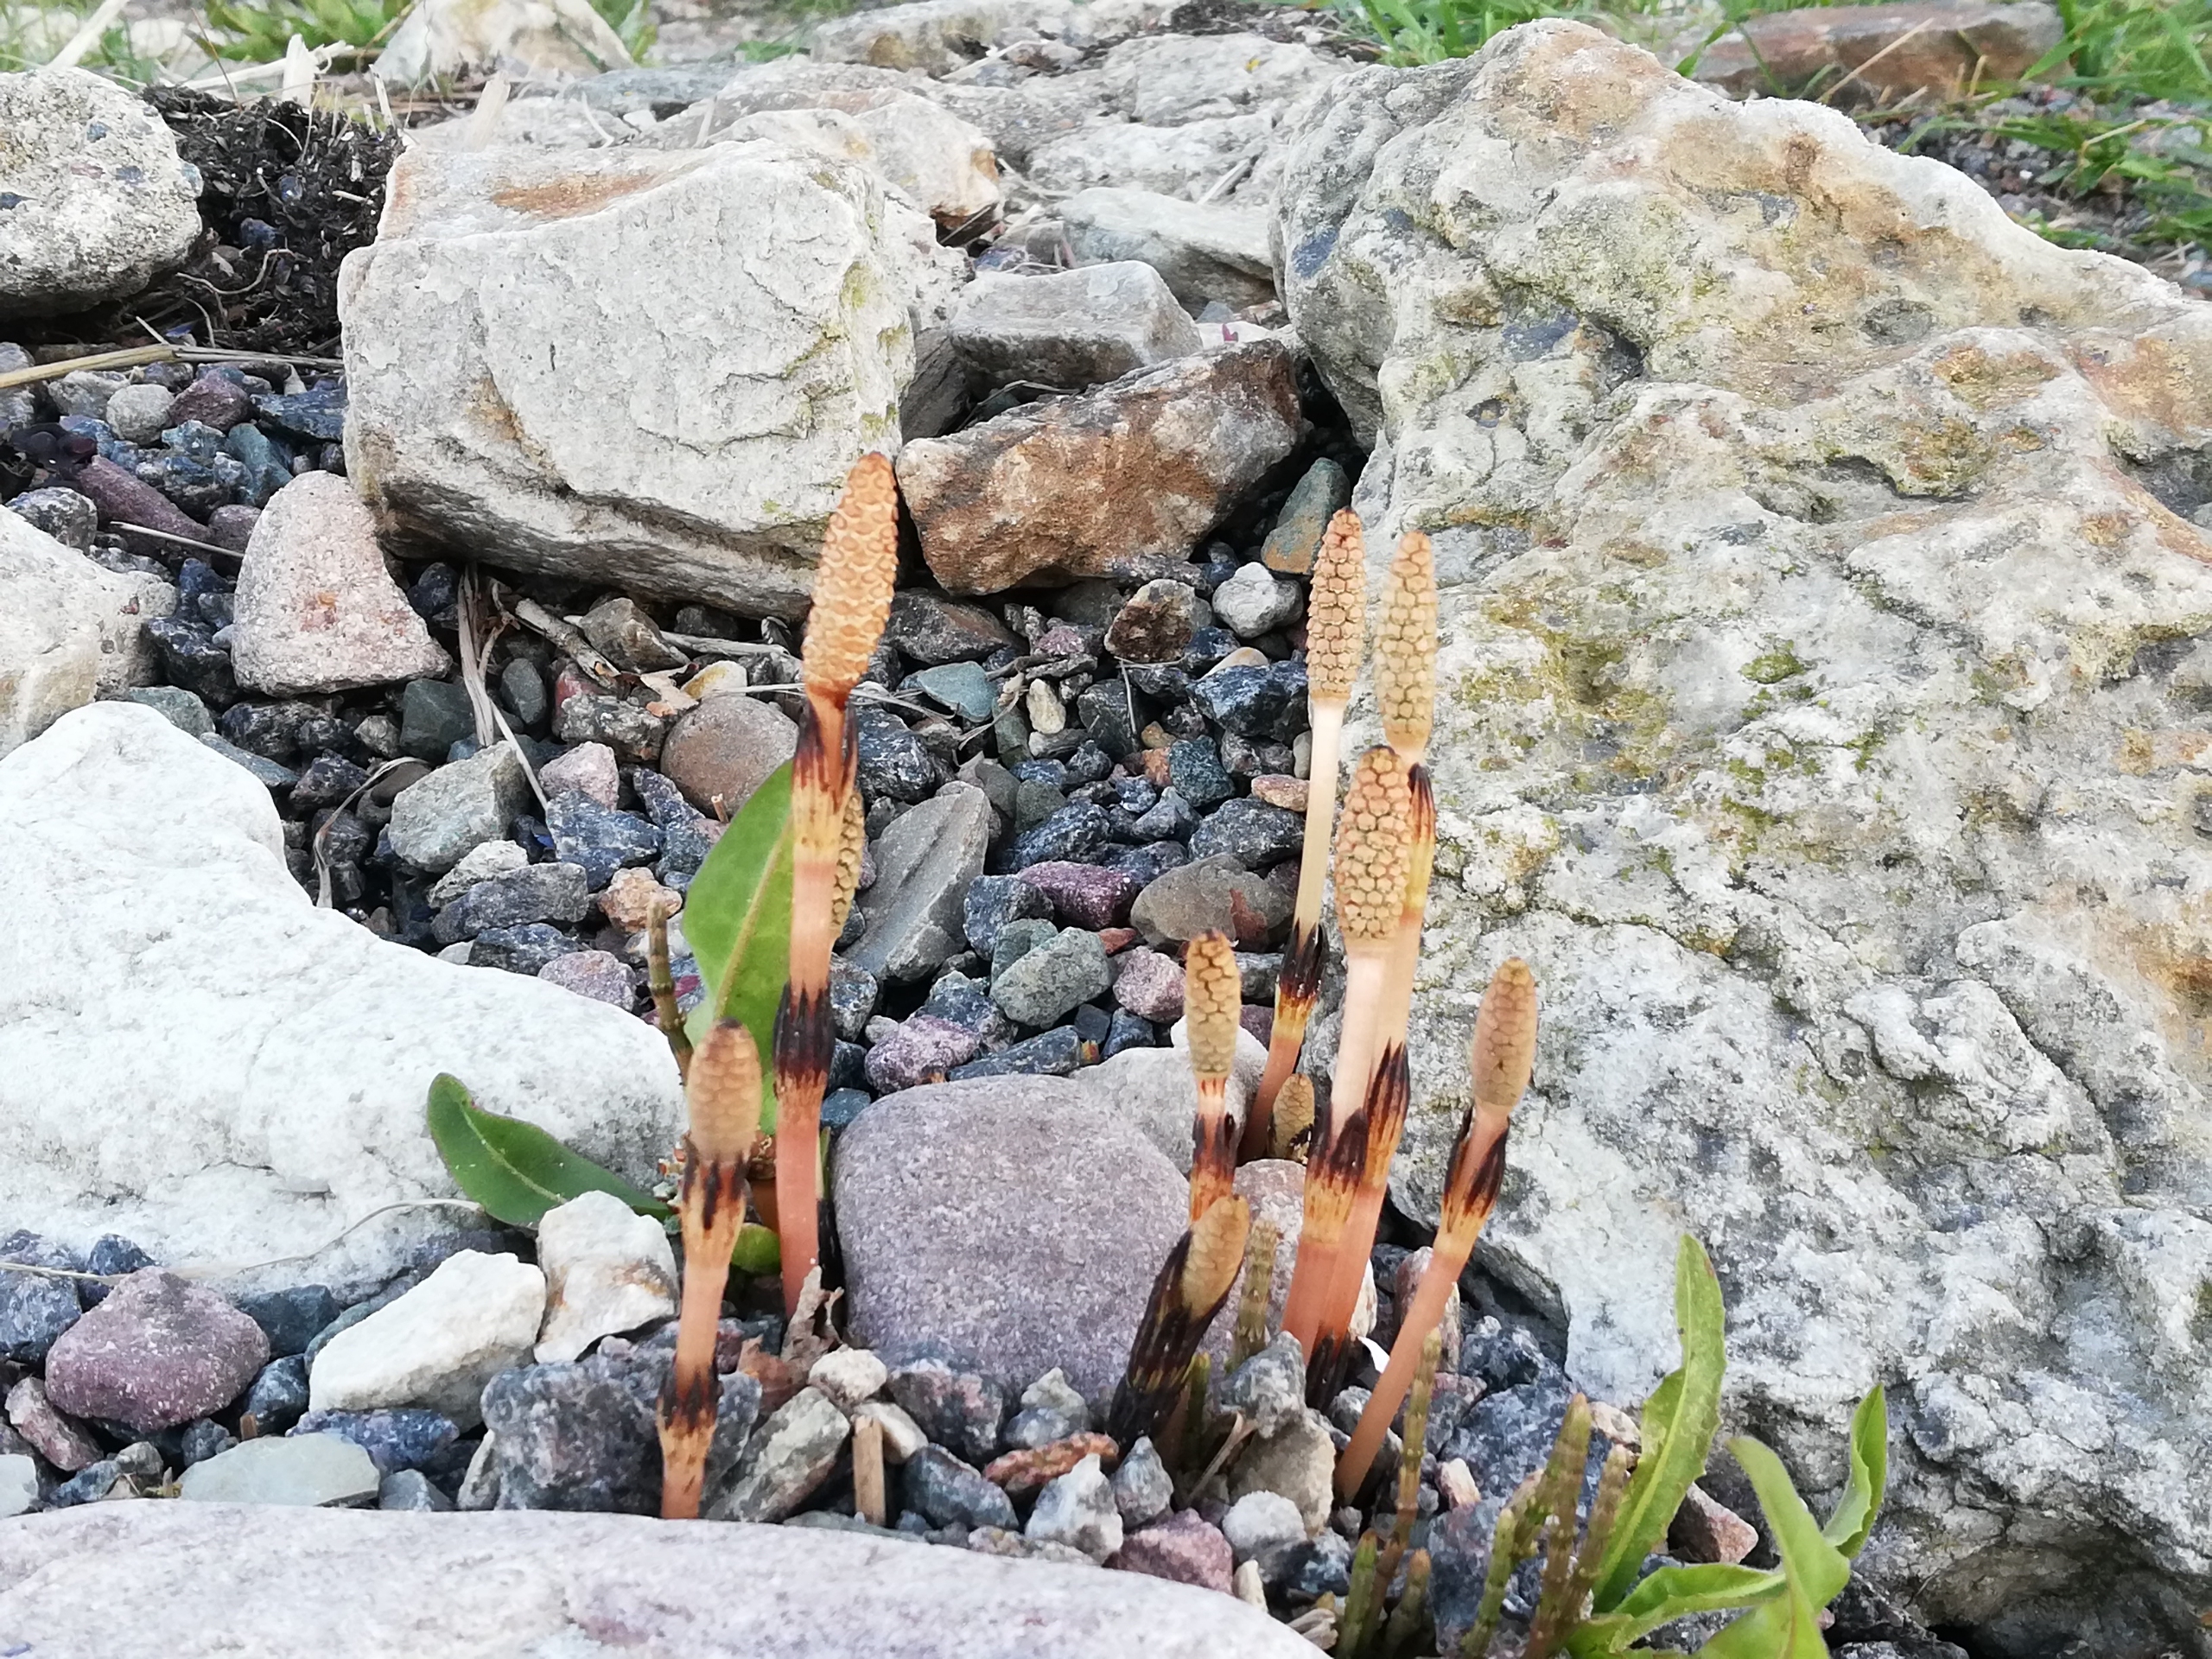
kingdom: Plantae
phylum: Tracheophyta
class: Polypodiopsida
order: Equisetales
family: Equisetaceae
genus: Equisetum
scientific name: Equisetum arvense
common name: Ager-padderok
